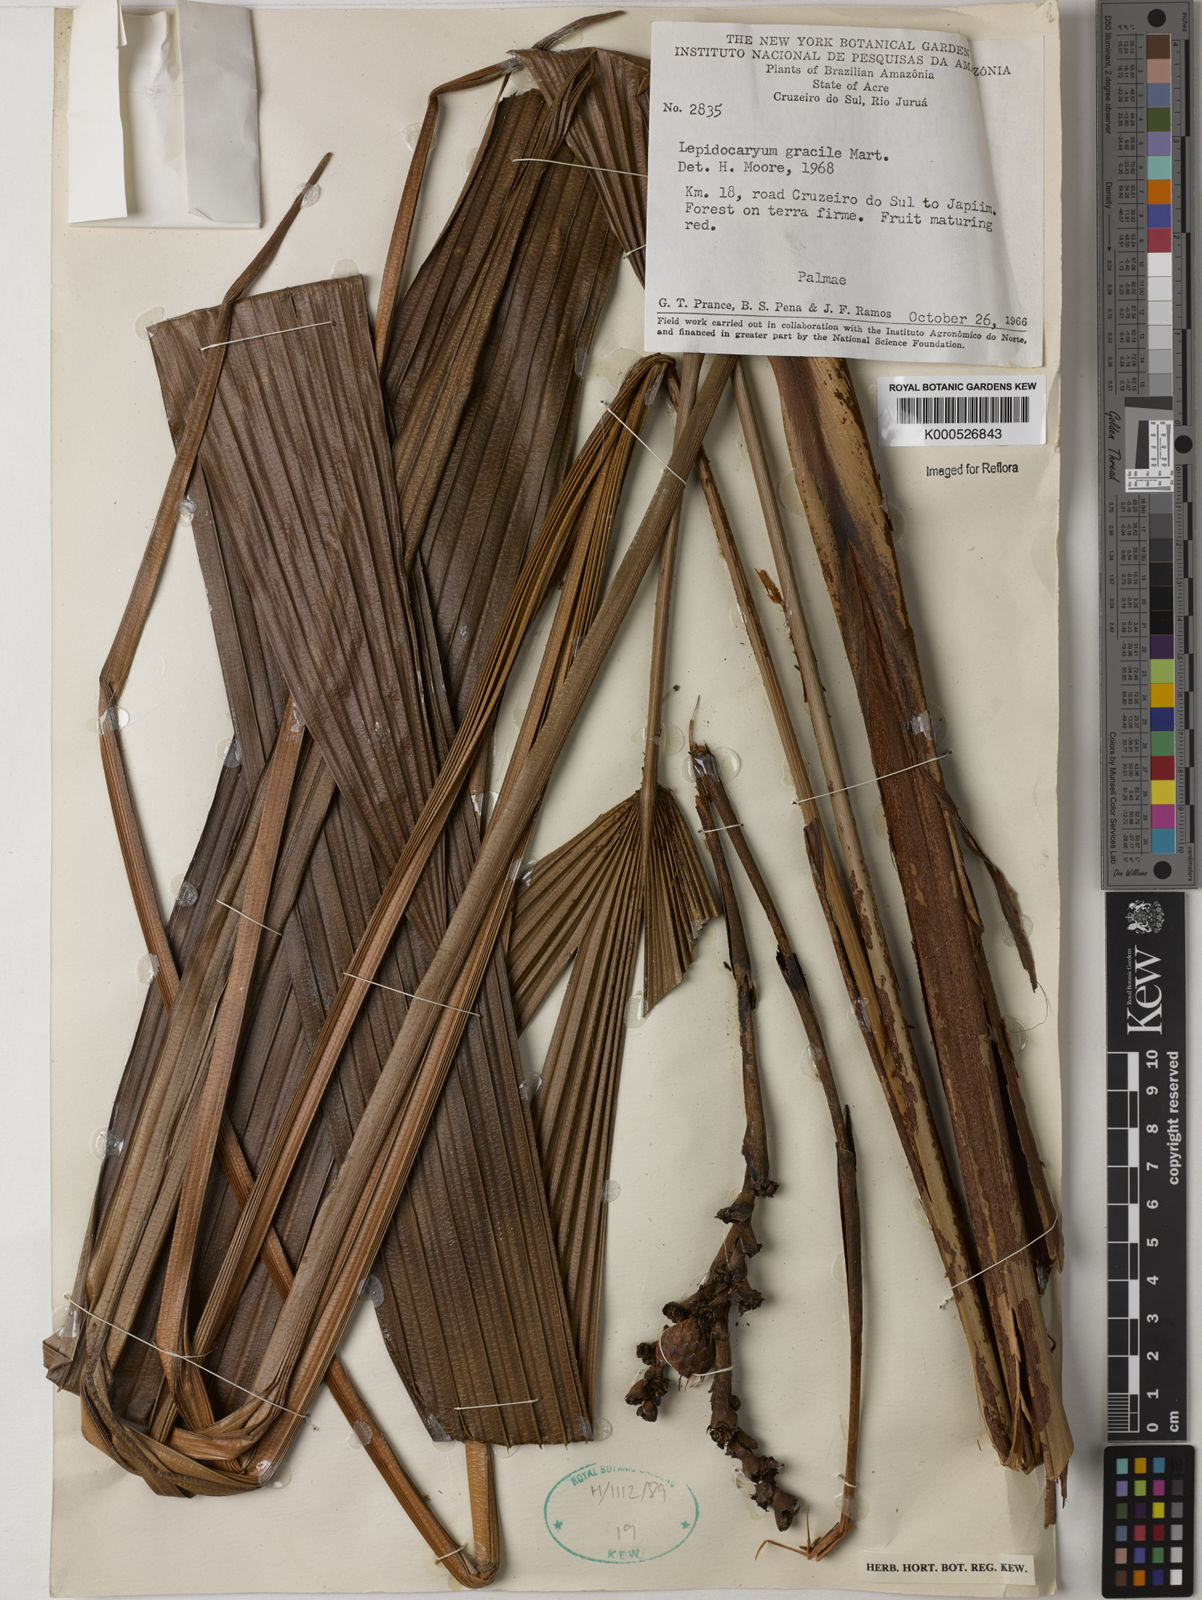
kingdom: Plantae
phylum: Tracheophyta
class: Liliopsida
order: Arecales
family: Arecaceae
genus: Lepidocaryum
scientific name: Lepidocaryum tenue
